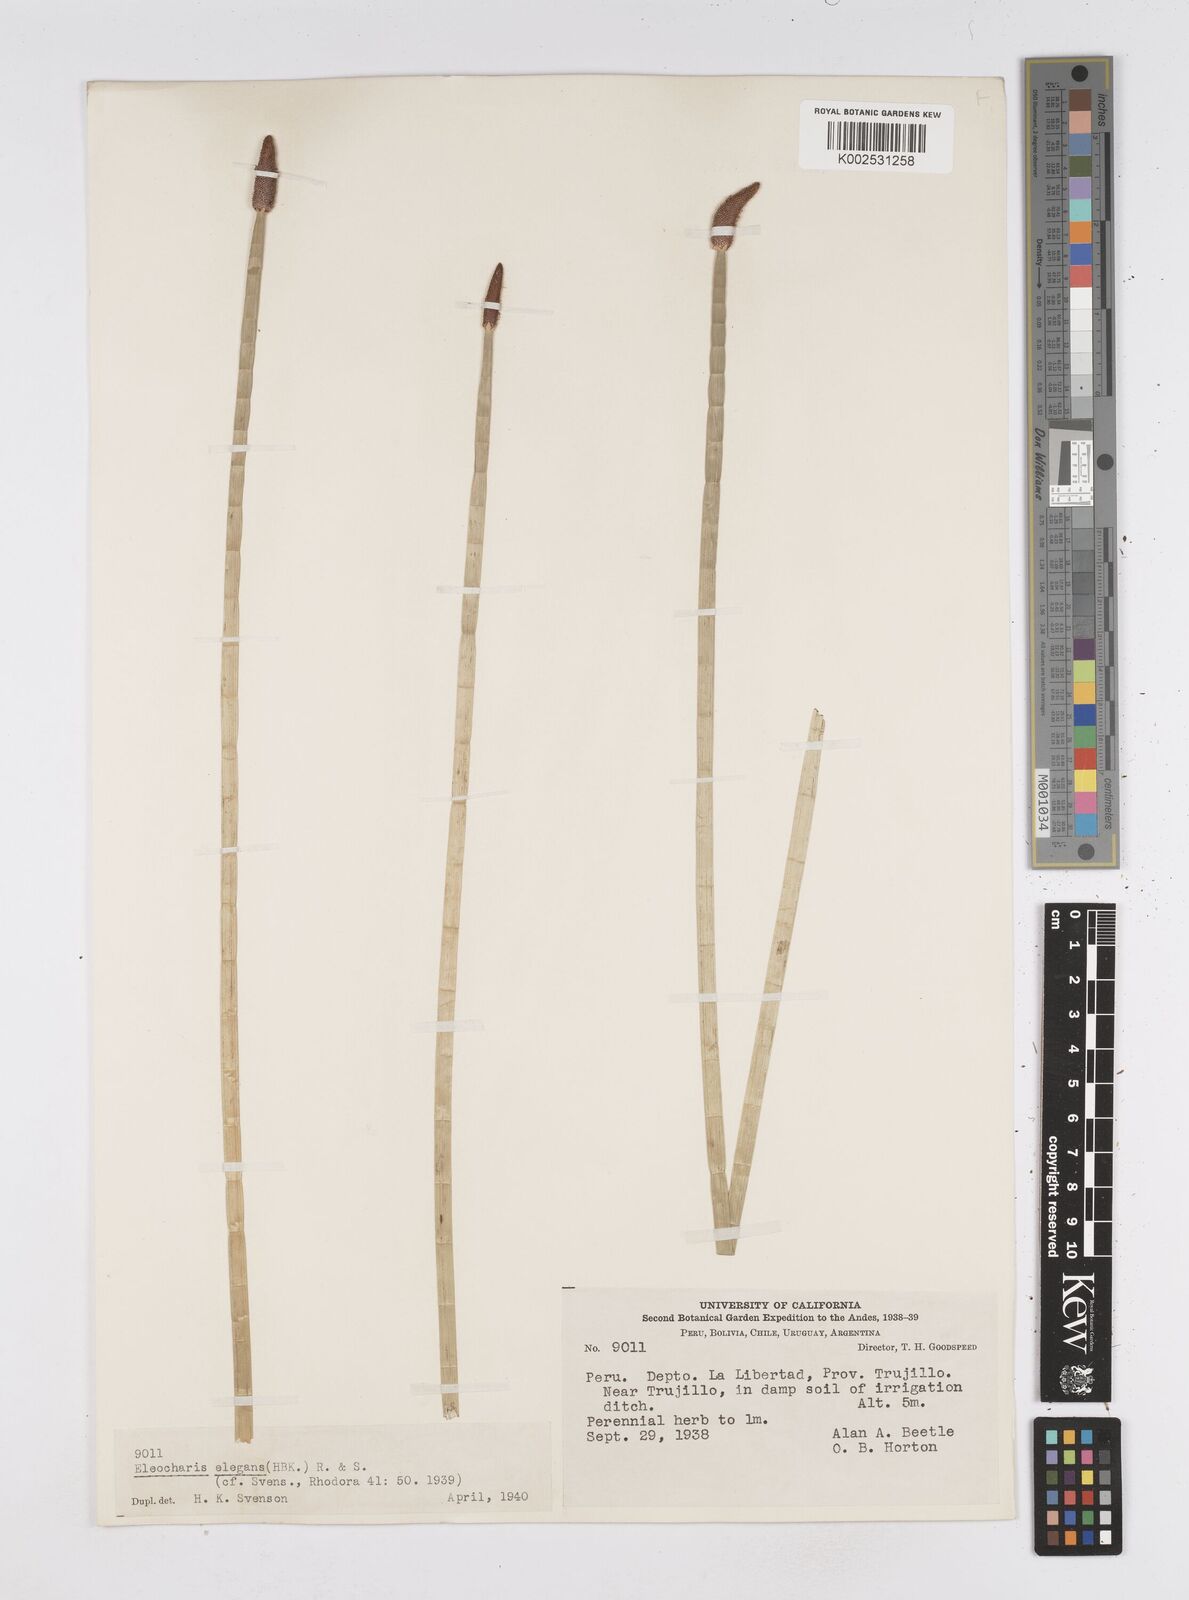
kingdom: Plantae
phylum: Tracheophyta
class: Liliopsida
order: Poales
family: Cyperaceae
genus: Eleocharis
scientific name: Eleocharis elegans
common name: Elegant spike-rush
